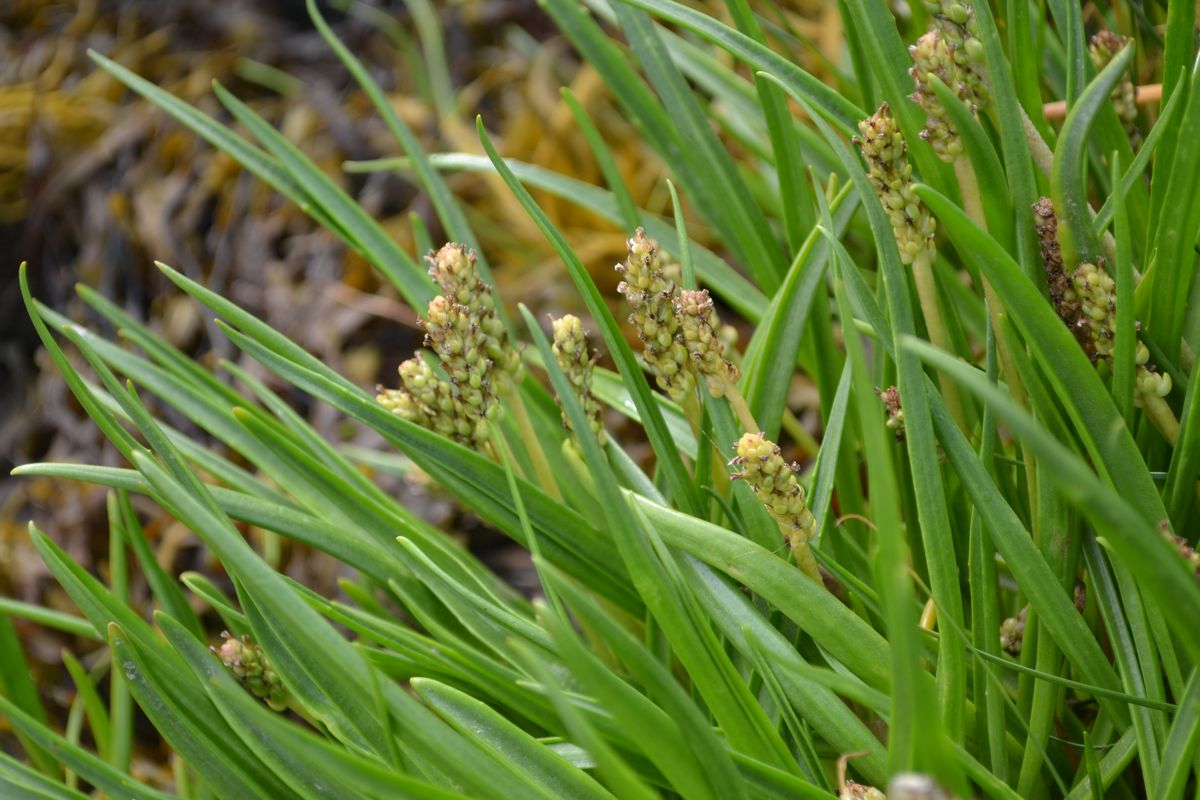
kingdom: Plantae
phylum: Tracheophyta
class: Magnoliopsida
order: Lamiales
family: Plantaginaceae
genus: Plantago
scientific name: Plantago maritima
